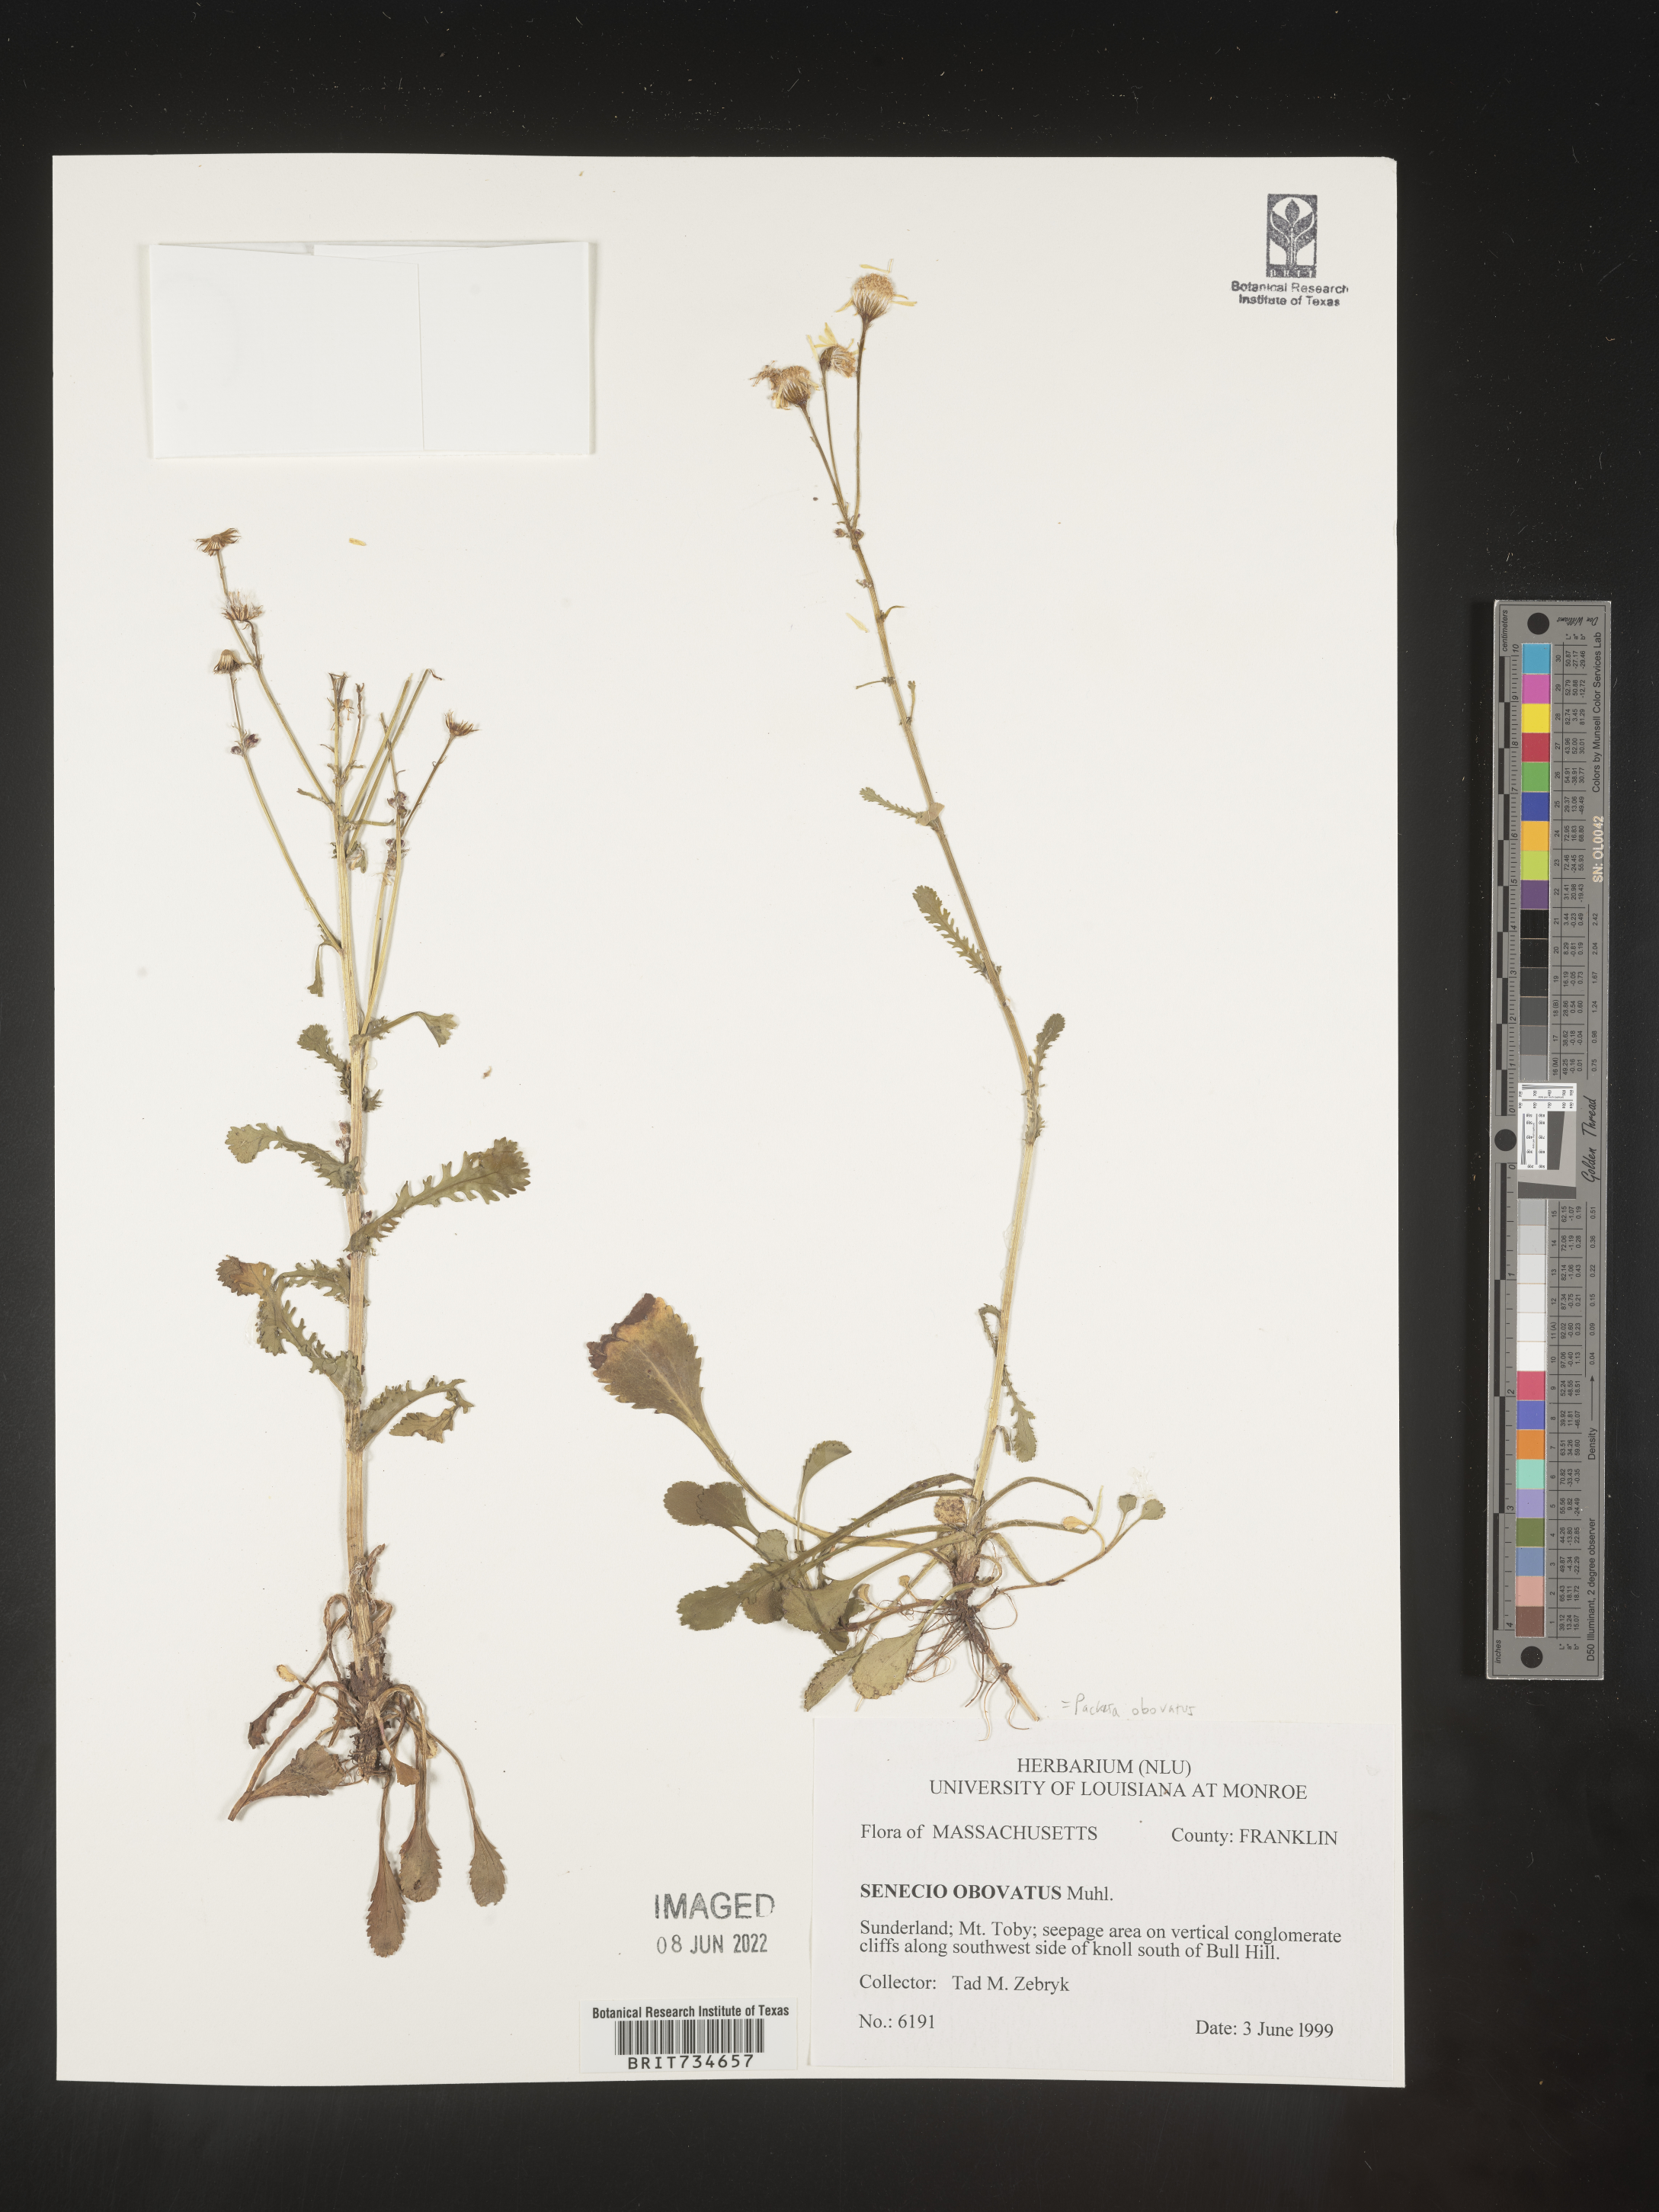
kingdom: Plantae
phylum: Tracheophyta
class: Magnoliopsida
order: Asterales
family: Asteraceae
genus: Packera
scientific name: Packera obovata
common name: Round-leaf ragwort
